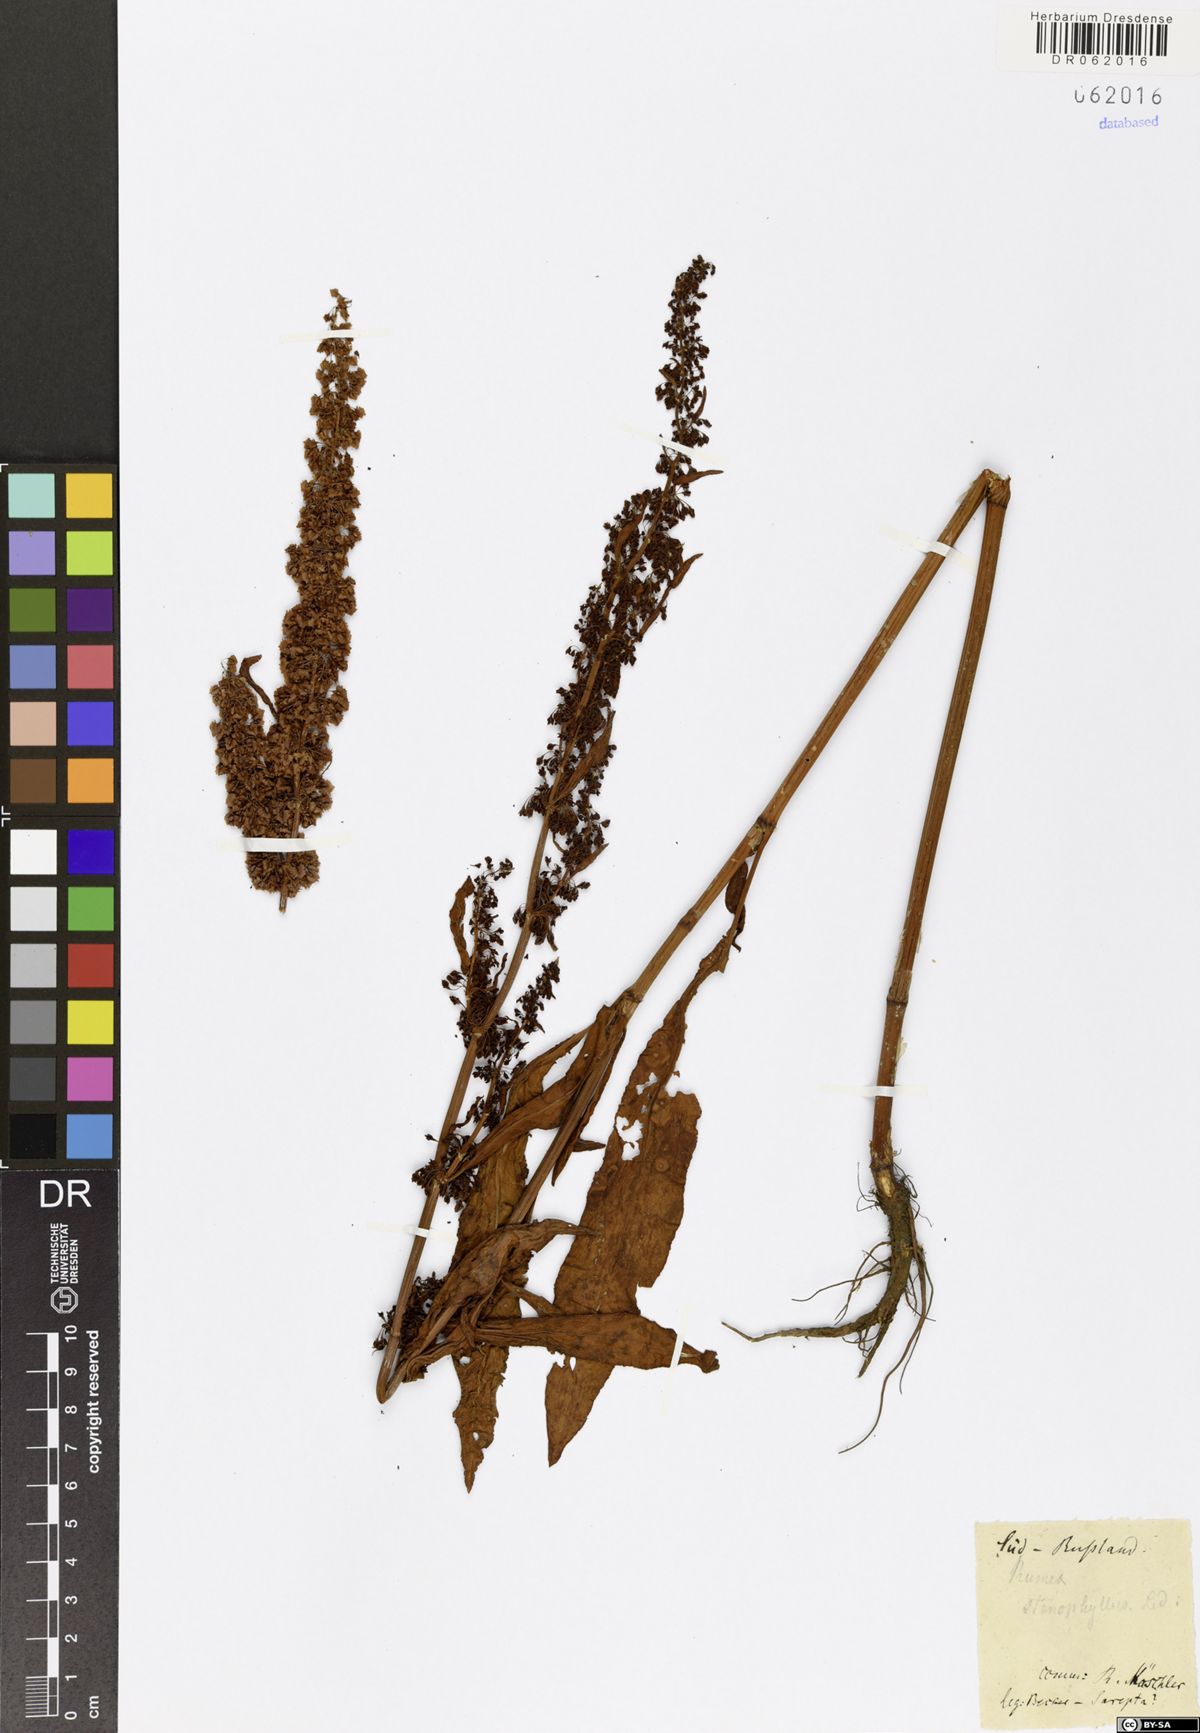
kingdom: Plantae
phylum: Tracheophyta
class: Magnoliopsida
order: Caryophyllales
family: Polygonaceae
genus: Rumex
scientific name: Rumex stenophyllus
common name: Narrowleaf dock
